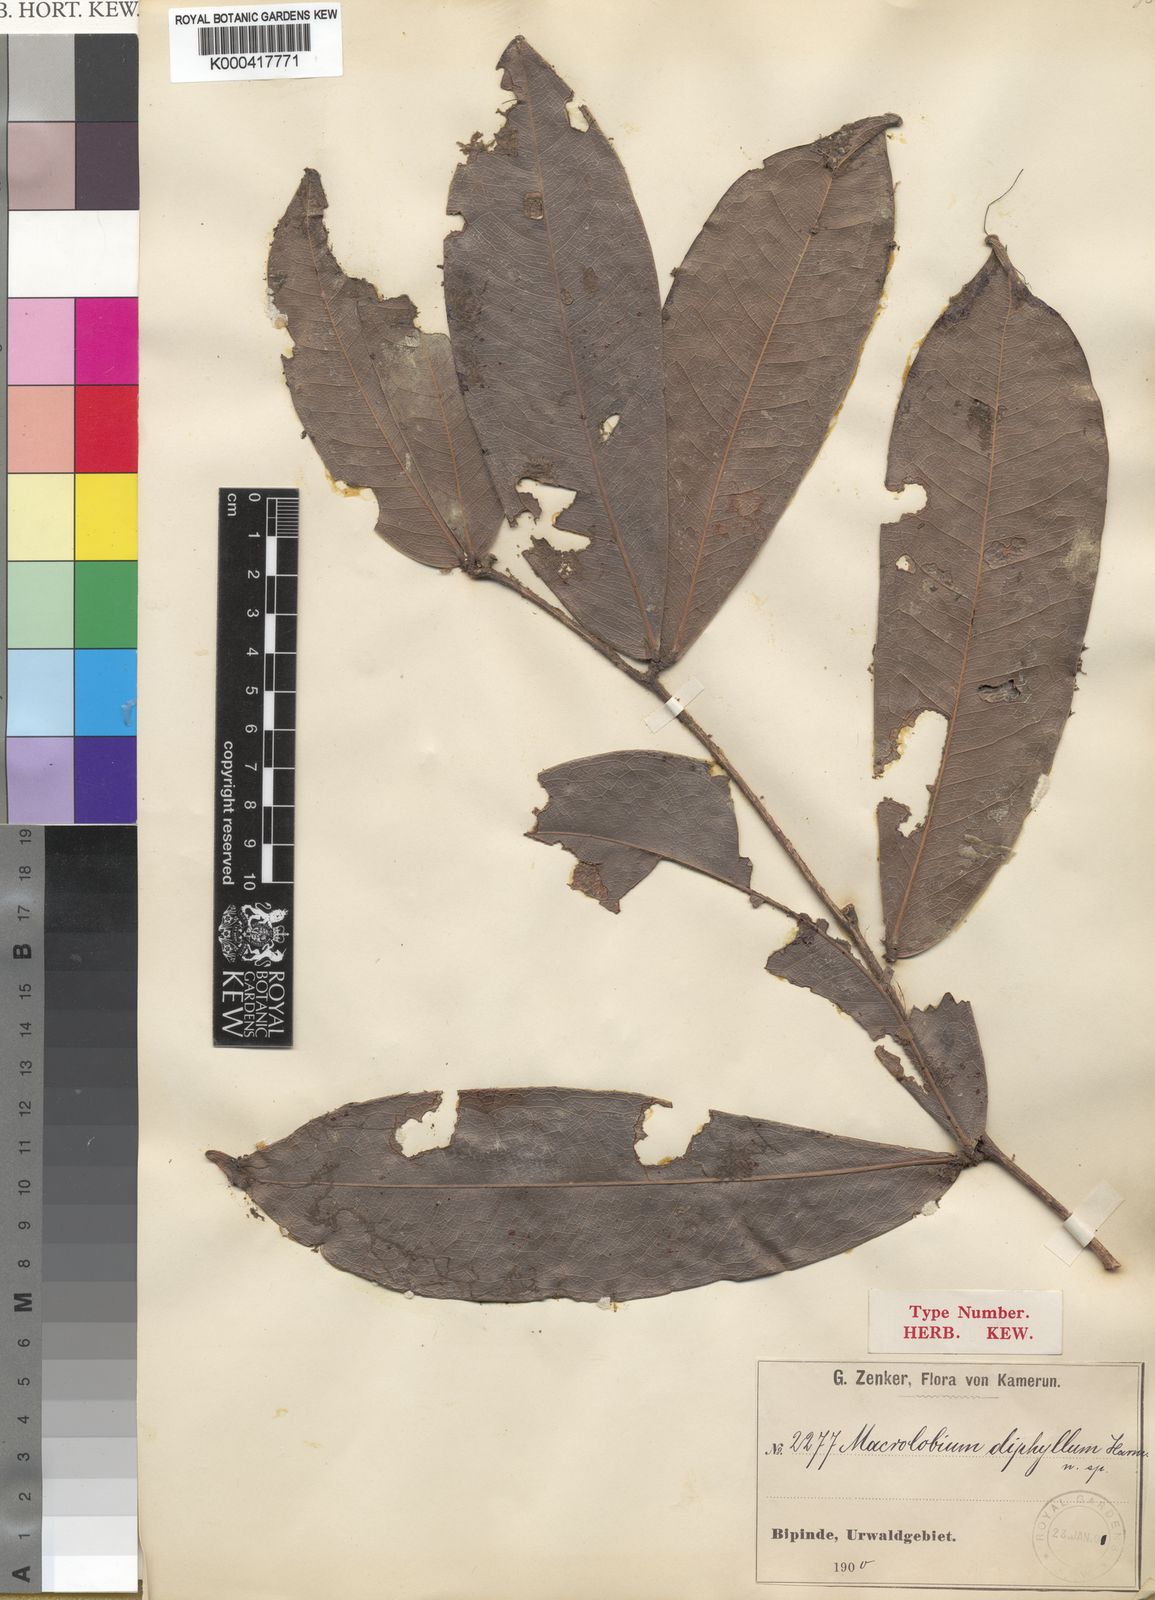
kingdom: Plantae
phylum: Tracheophyta
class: Magnoliopsida
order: Fabales
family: Fabaceae
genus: Gilbertiodendron
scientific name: Gilbertiodendron
